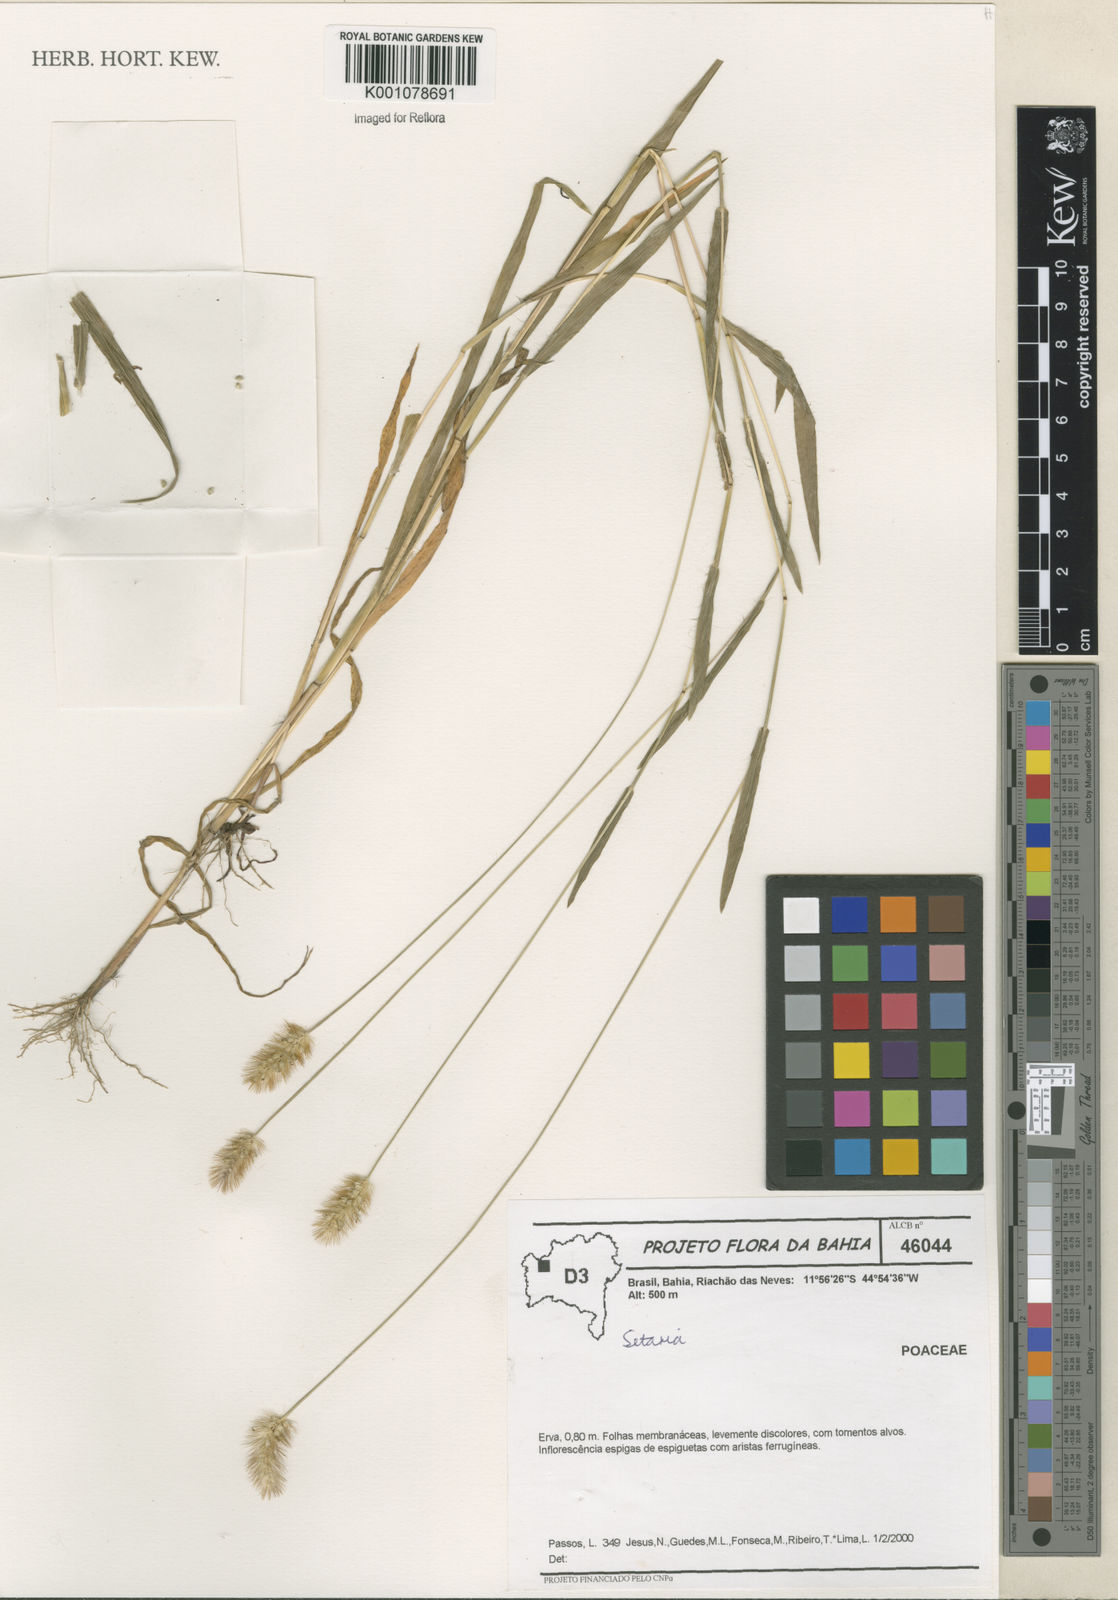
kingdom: Plantae
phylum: Tracheophyta
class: Liliopsida
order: Poales
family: Poaceae
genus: Setaria
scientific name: Setaria
